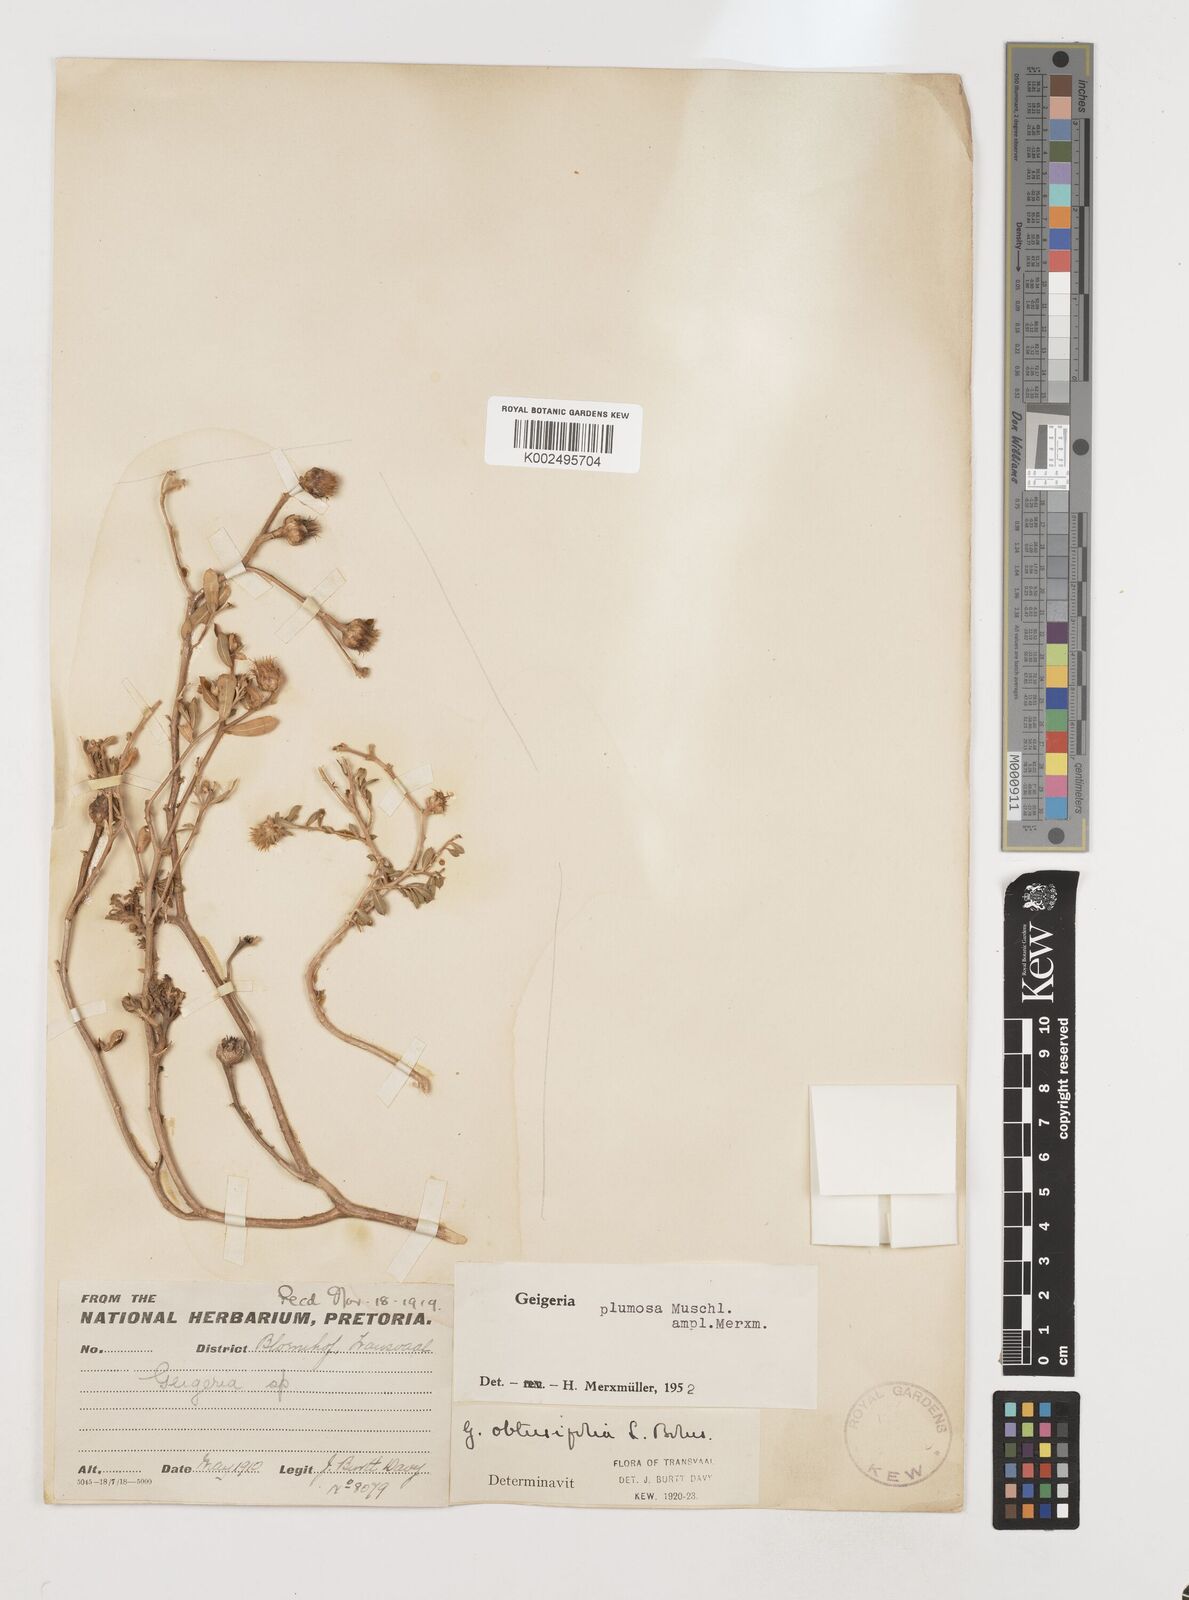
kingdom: Plantae
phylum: Tracheophyta
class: Magnoliopsida
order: Asterales
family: Asteraceae
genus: Geigeria
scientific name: Geigeria plumosa
